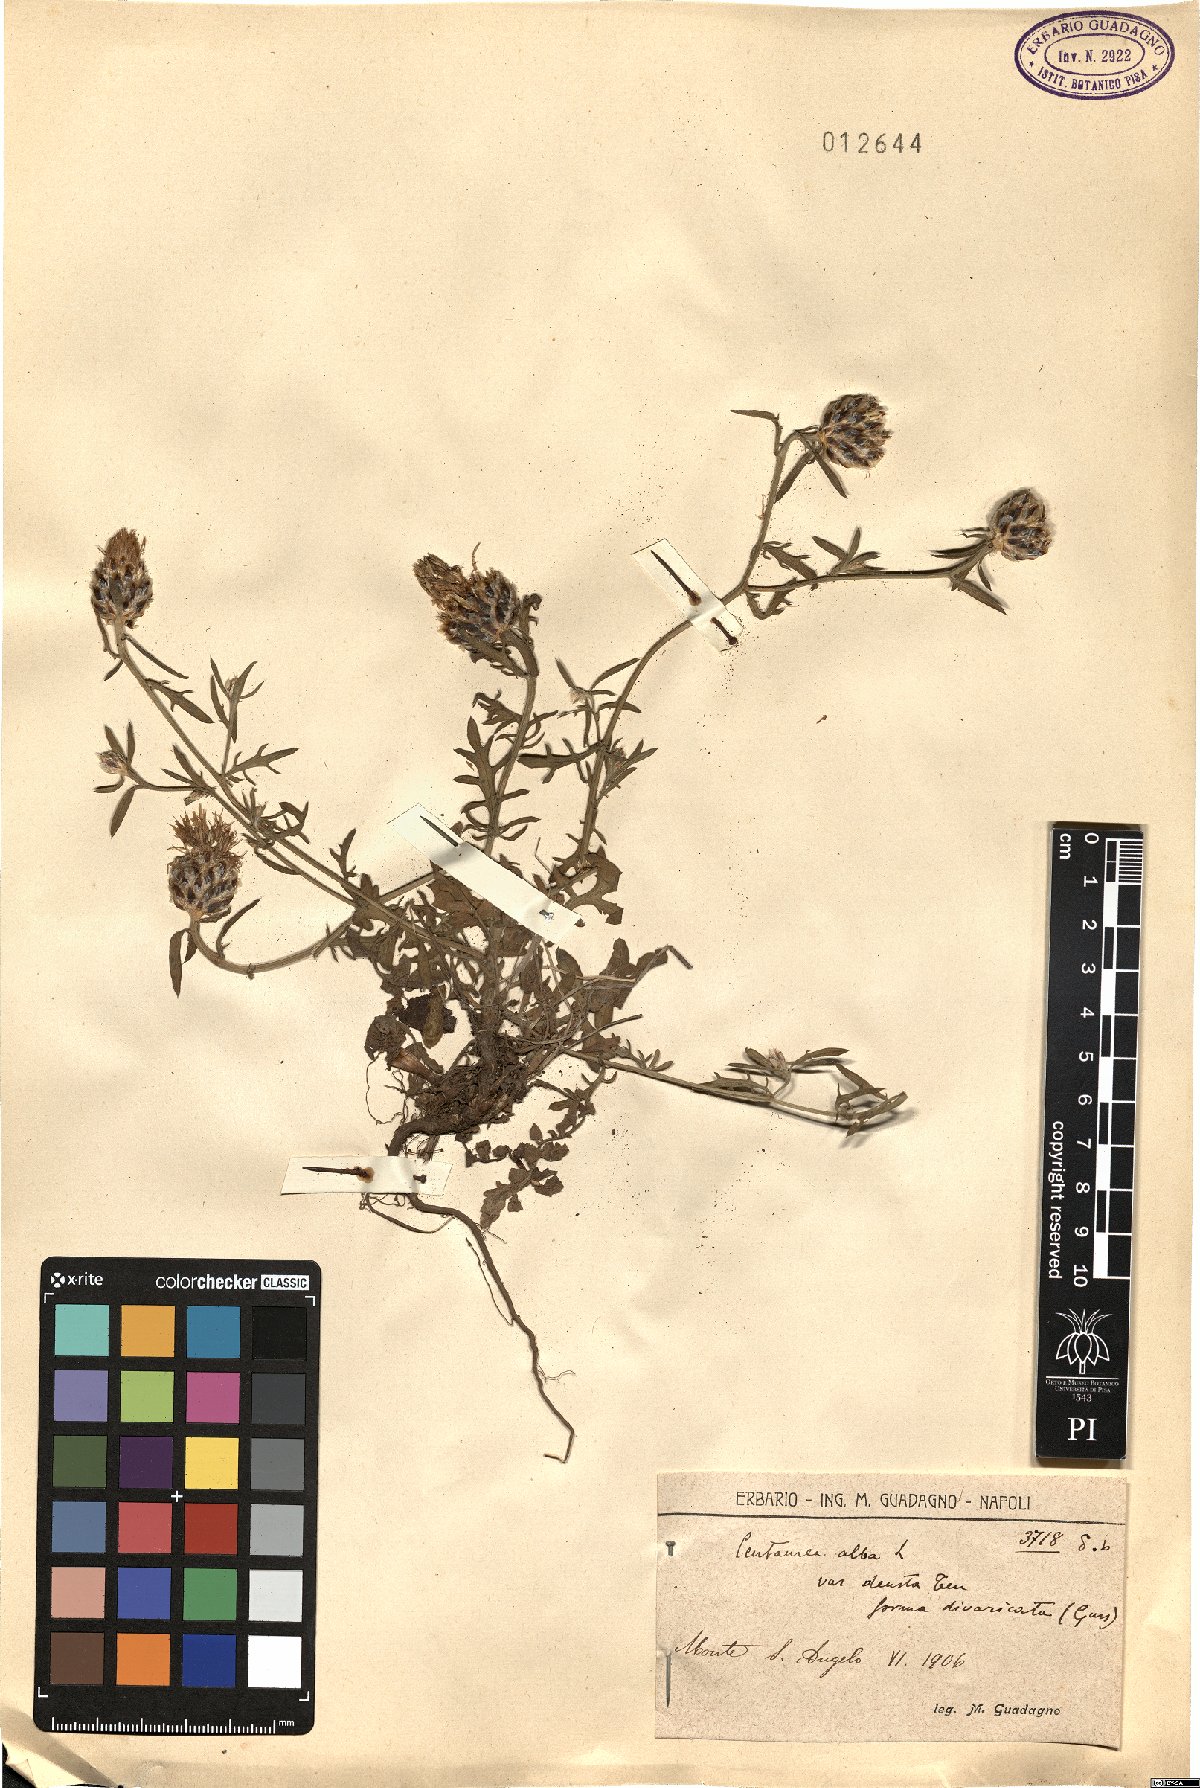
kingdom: Plantae
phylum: Tracheophyta
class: Magnoliopsida
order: Asterales
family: Asteraceae
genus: Centaurea
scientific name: Centaurea deusta
